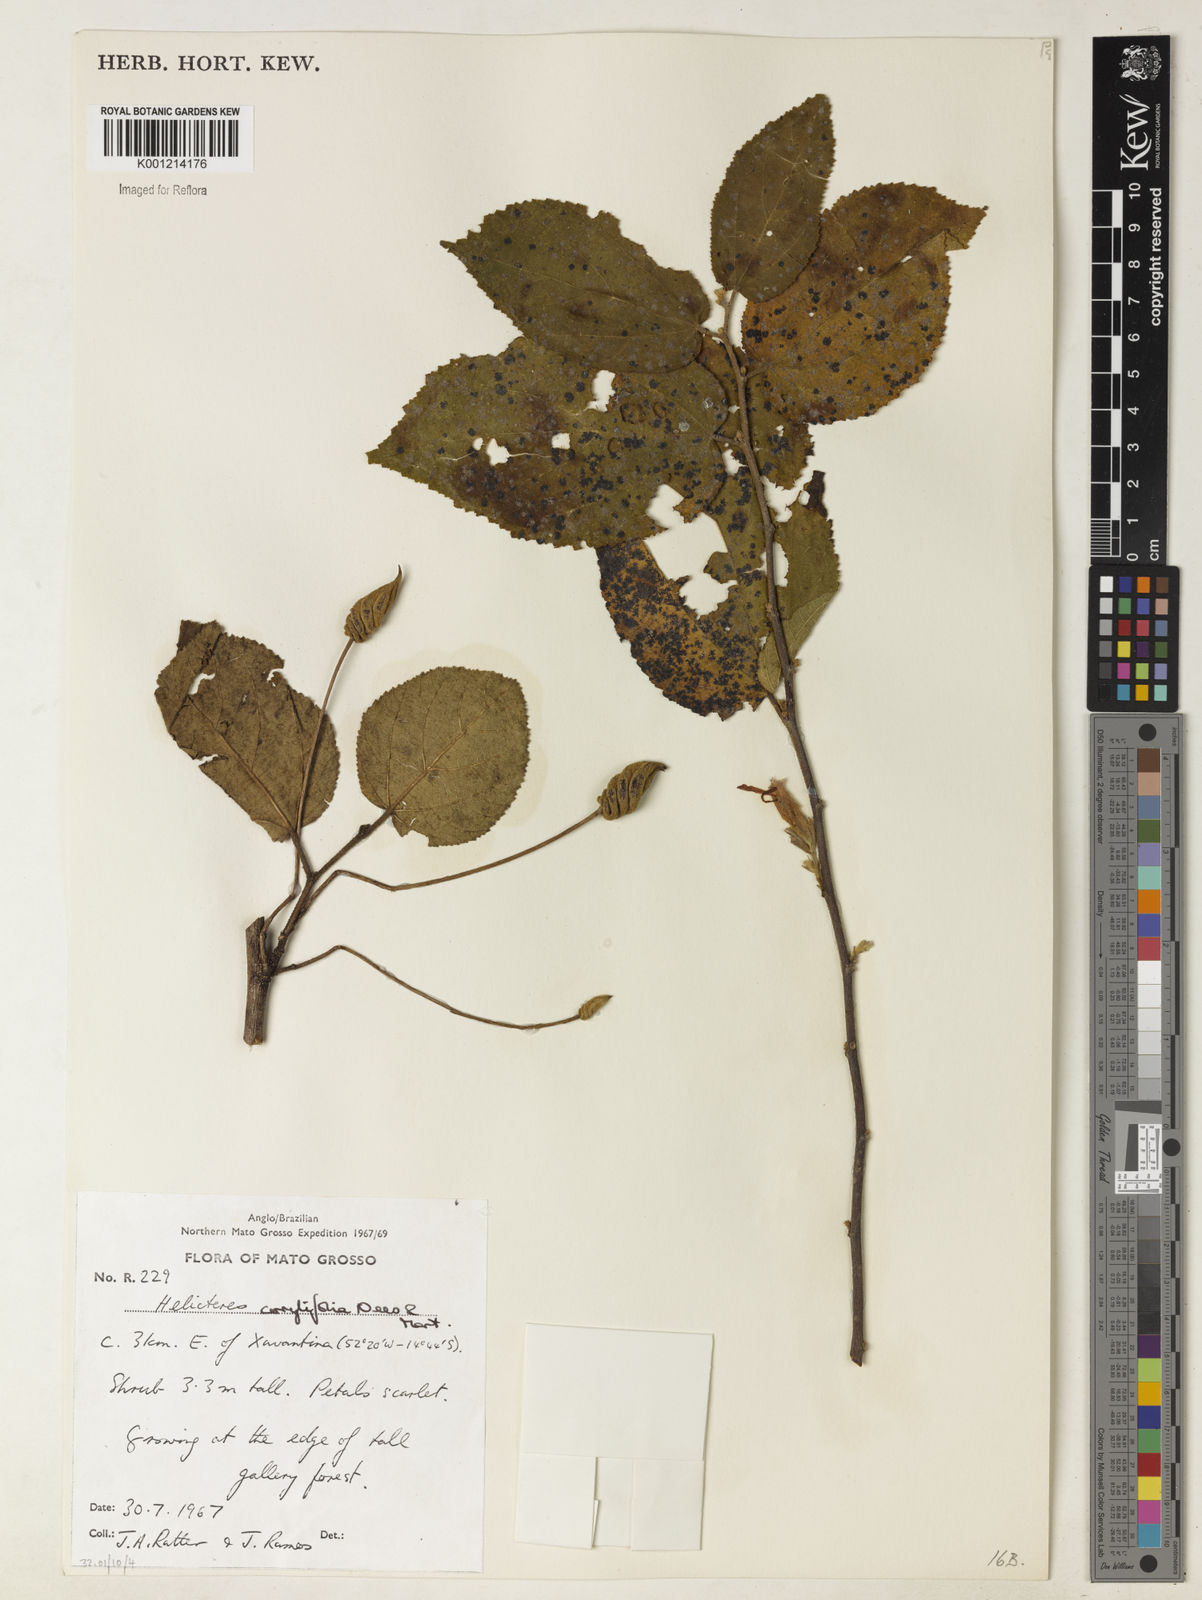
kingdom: Plantae
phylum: Tracheophyta
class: Magnoliopsida
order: Malvales
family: Malvaceae
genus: Helicteres
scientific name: Helicteres corylifolia
